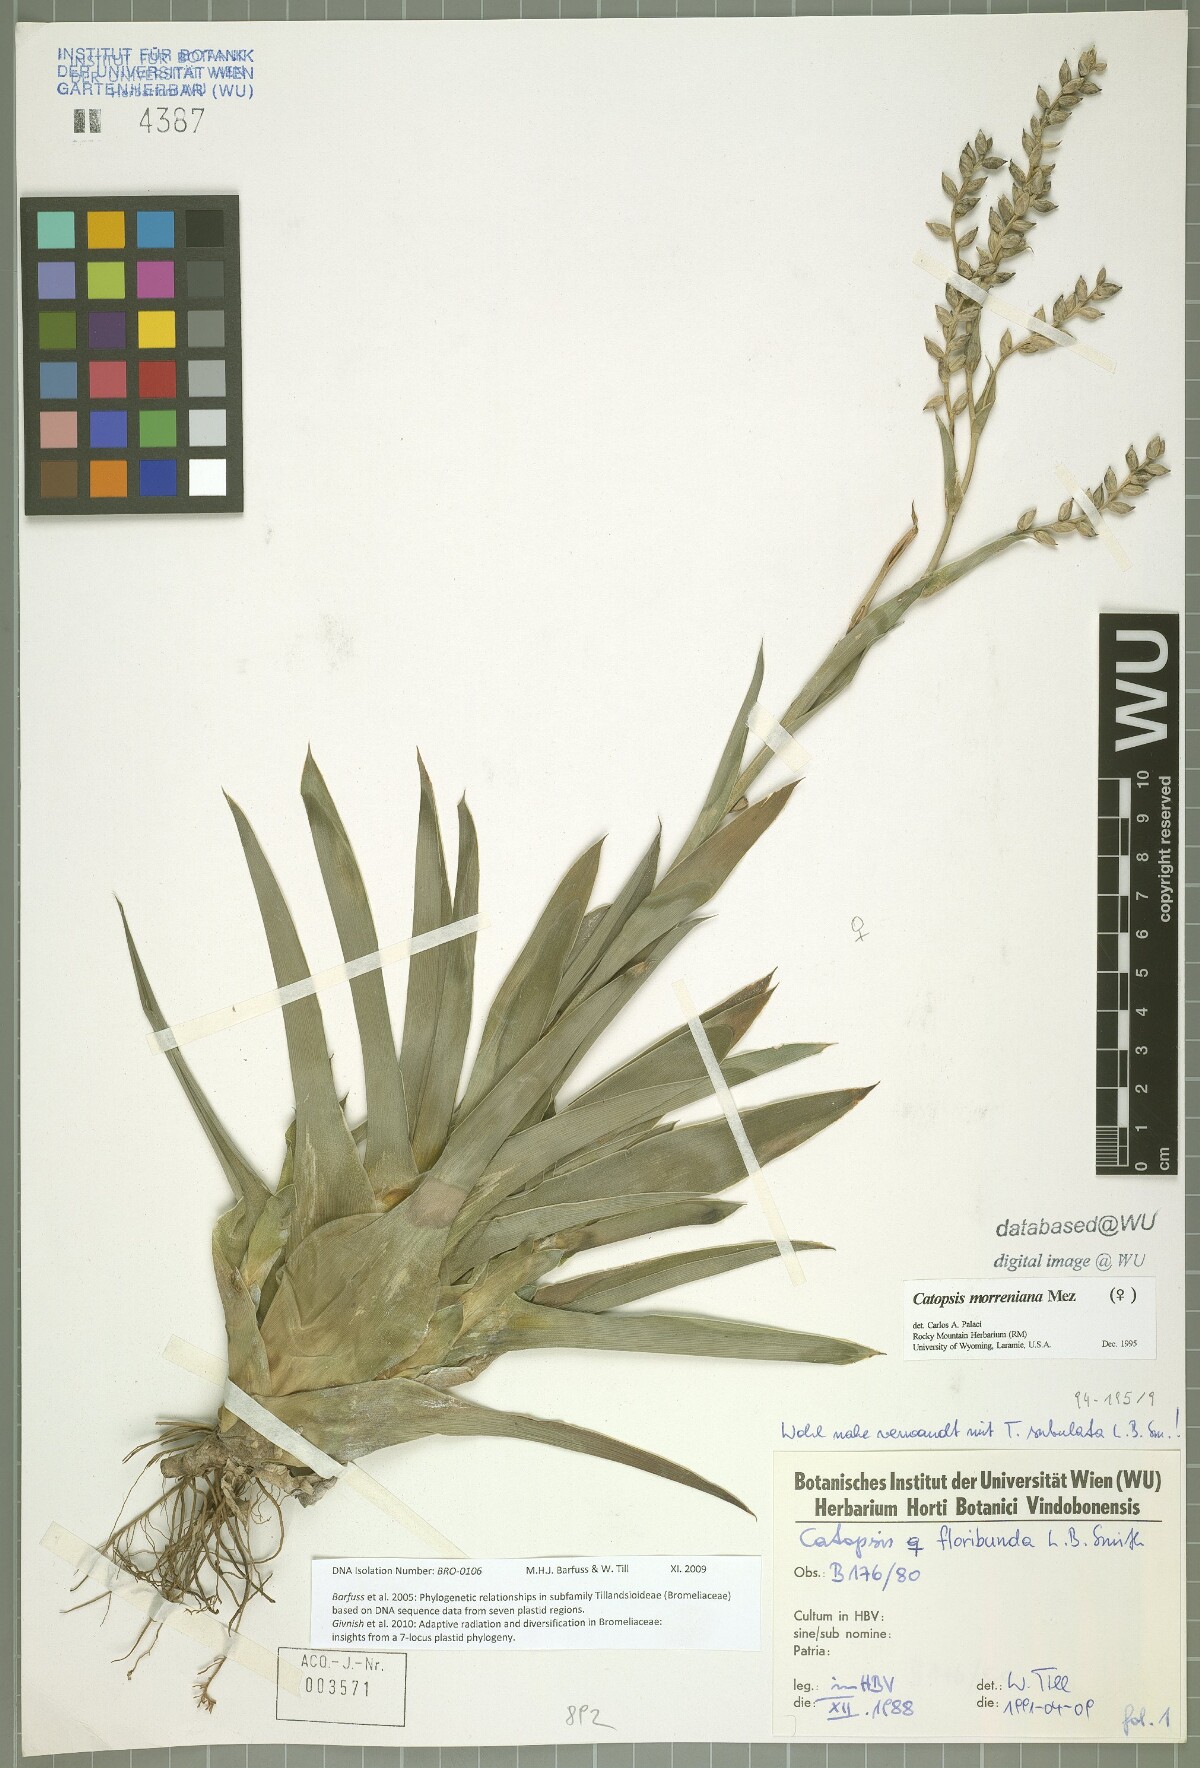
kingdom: Plantae
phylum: Tracheophyta
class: Liliopsida
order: Poales
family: Bromeliaceae
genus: Catopsis
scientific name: Catopsis morreniana
